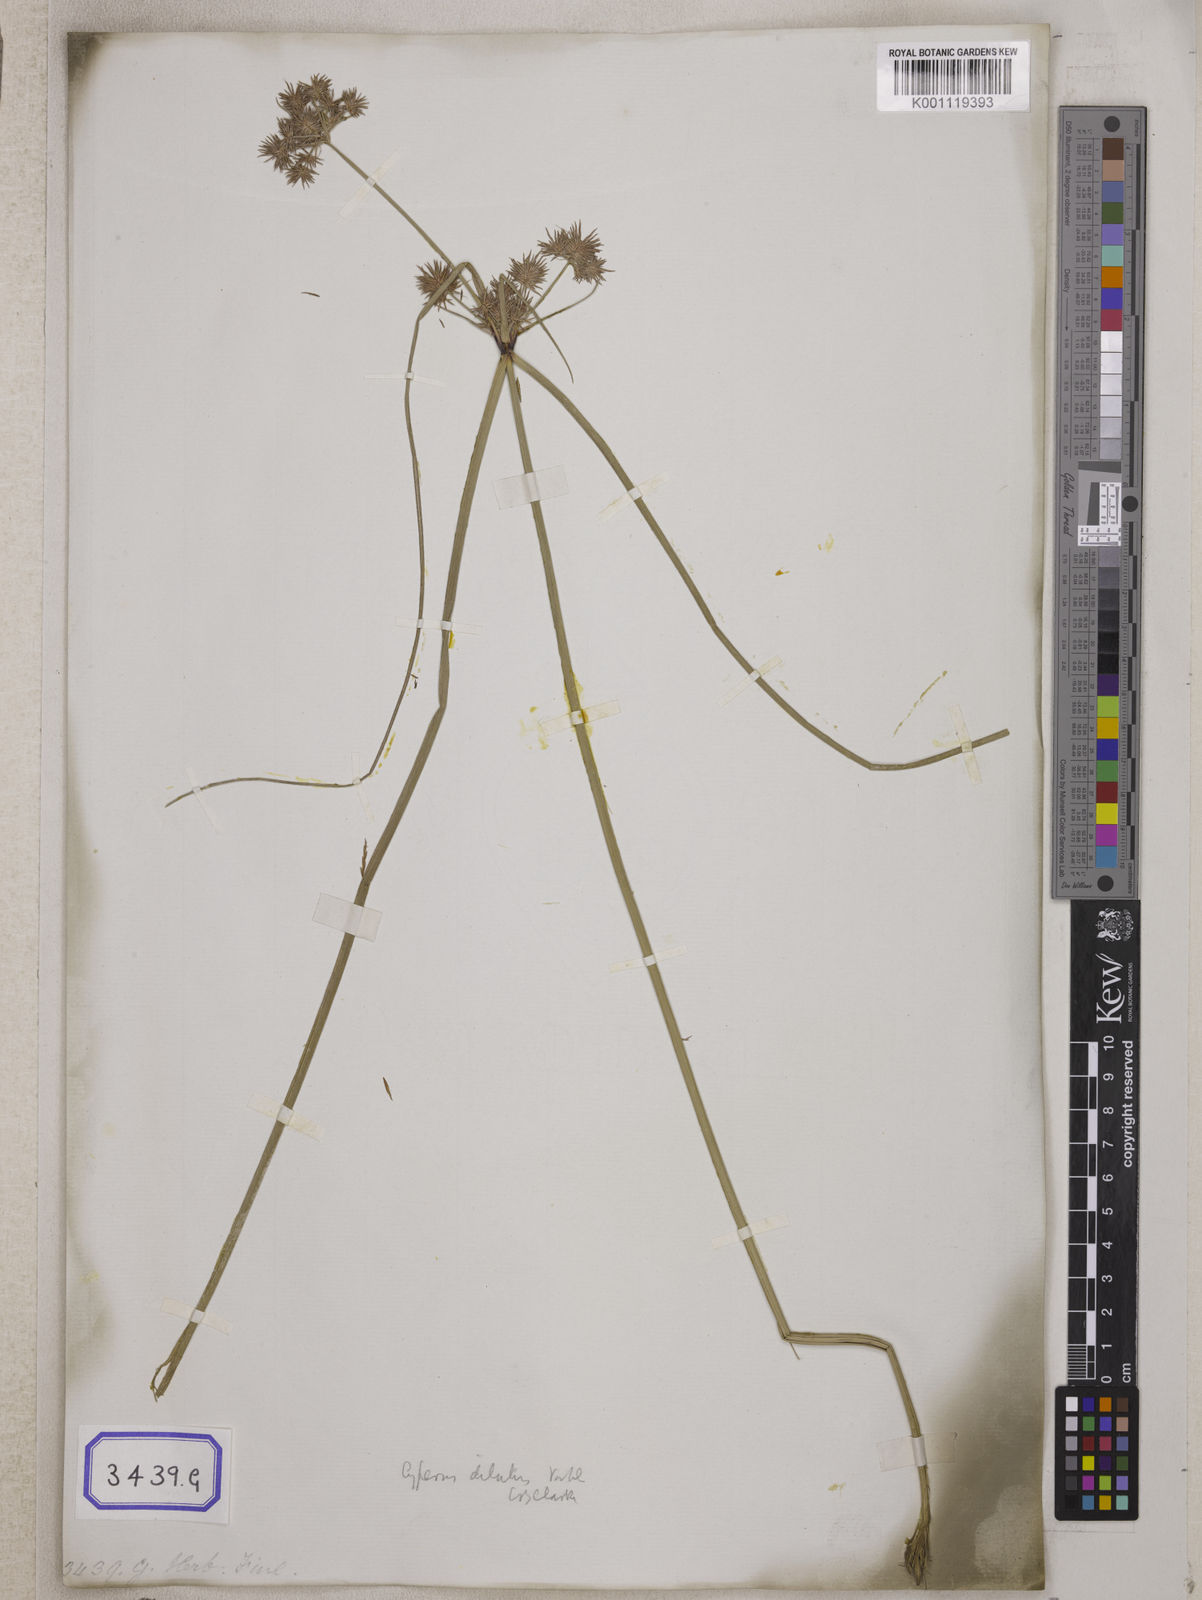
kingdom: Plantae
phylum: Tracheophyta
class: Magnoliopsida
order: Fabales
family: Fabaceae
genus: Desmodium
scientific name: Desmodium
